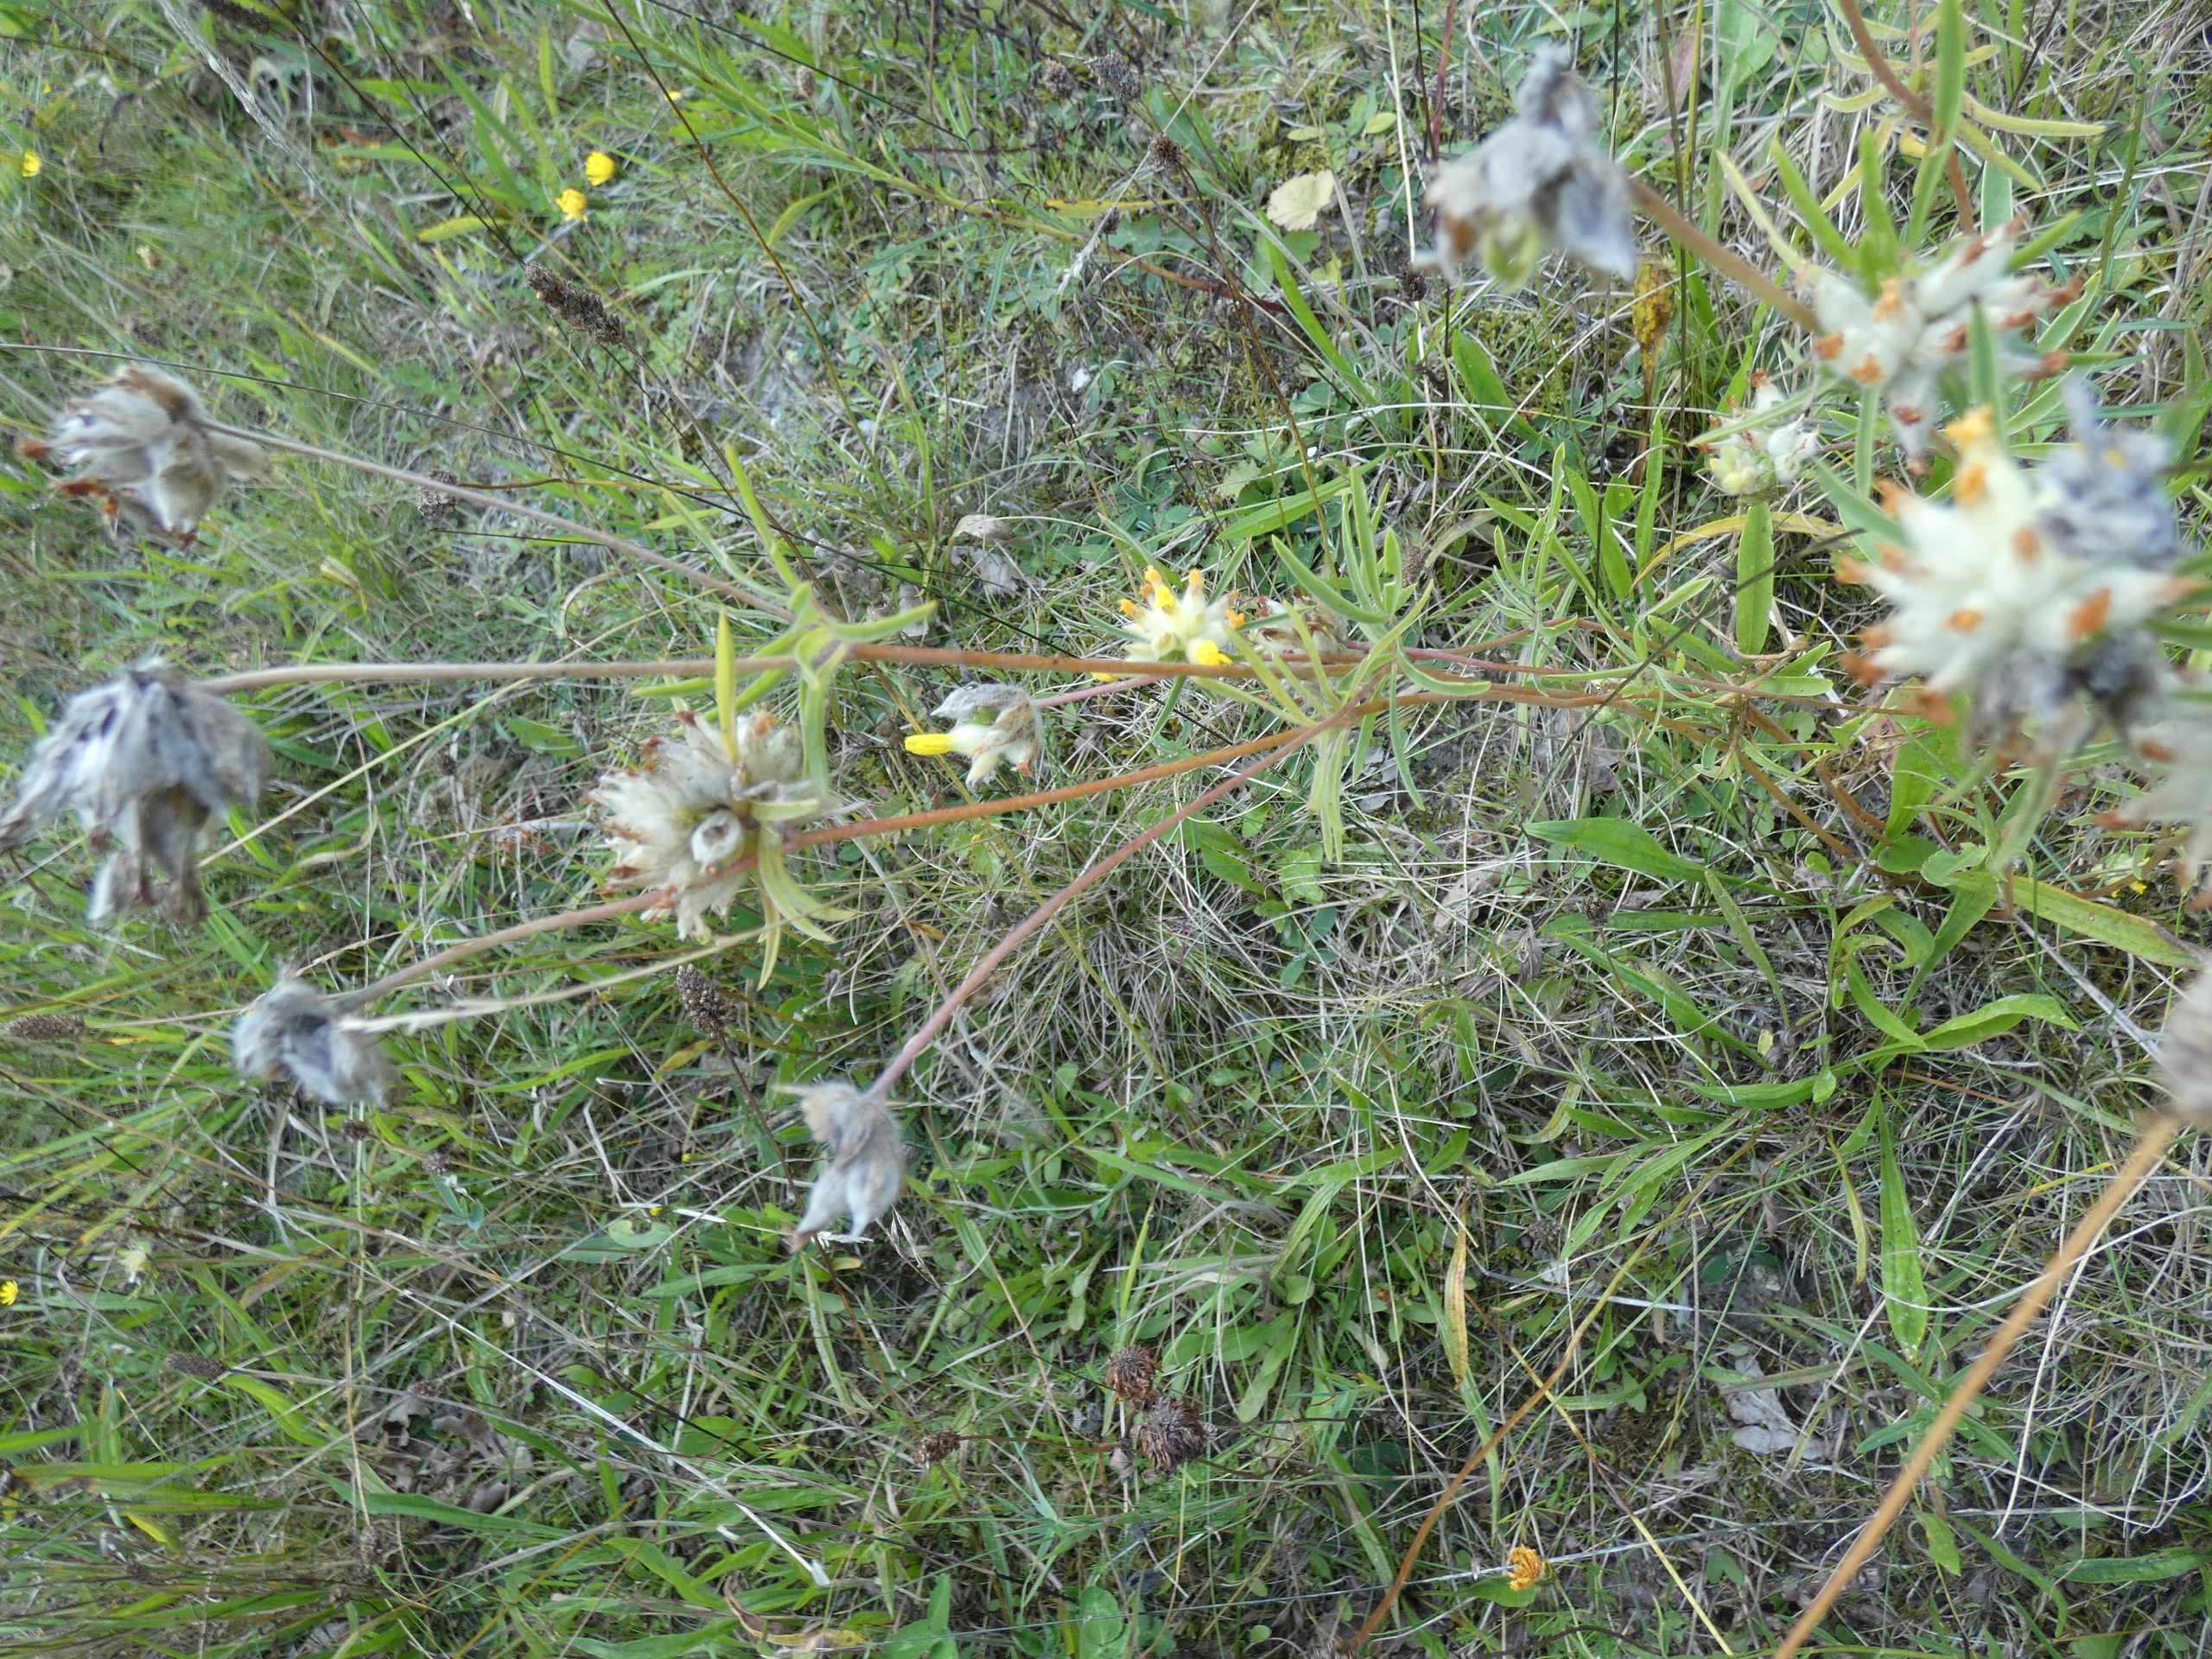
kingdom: Plantae
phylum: Tracheophyta
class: Magnoliopsida
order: Fabales
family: Fabaceae
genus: Anthyllis
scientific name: Anthyllis vulneraria
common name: Rundbælg
